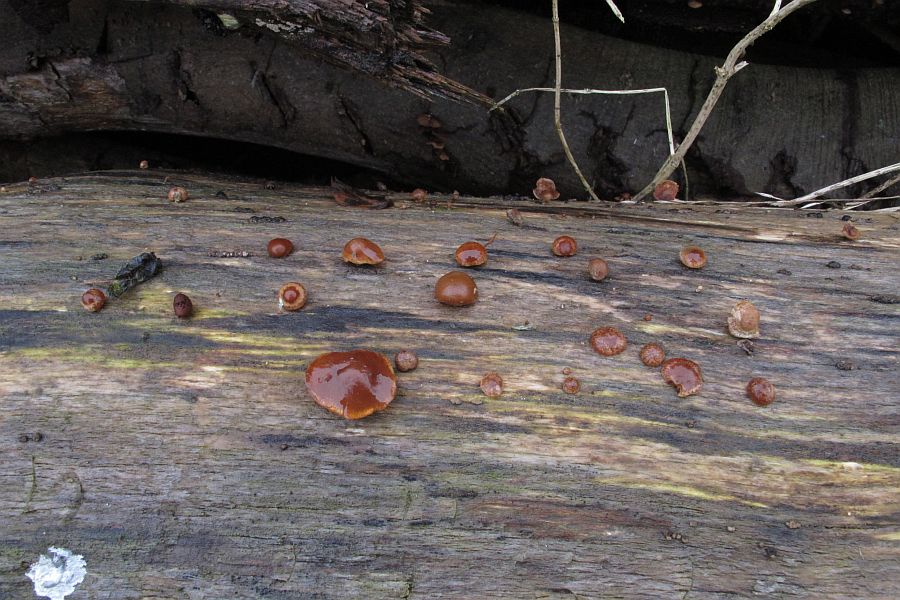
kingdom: Fungi
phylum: Basidiomycota
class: Agaricomycetes
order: Agaricales
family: Strophariaceae
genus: Deconica
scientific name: Deconica horizontalis
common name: ved-stråhat
